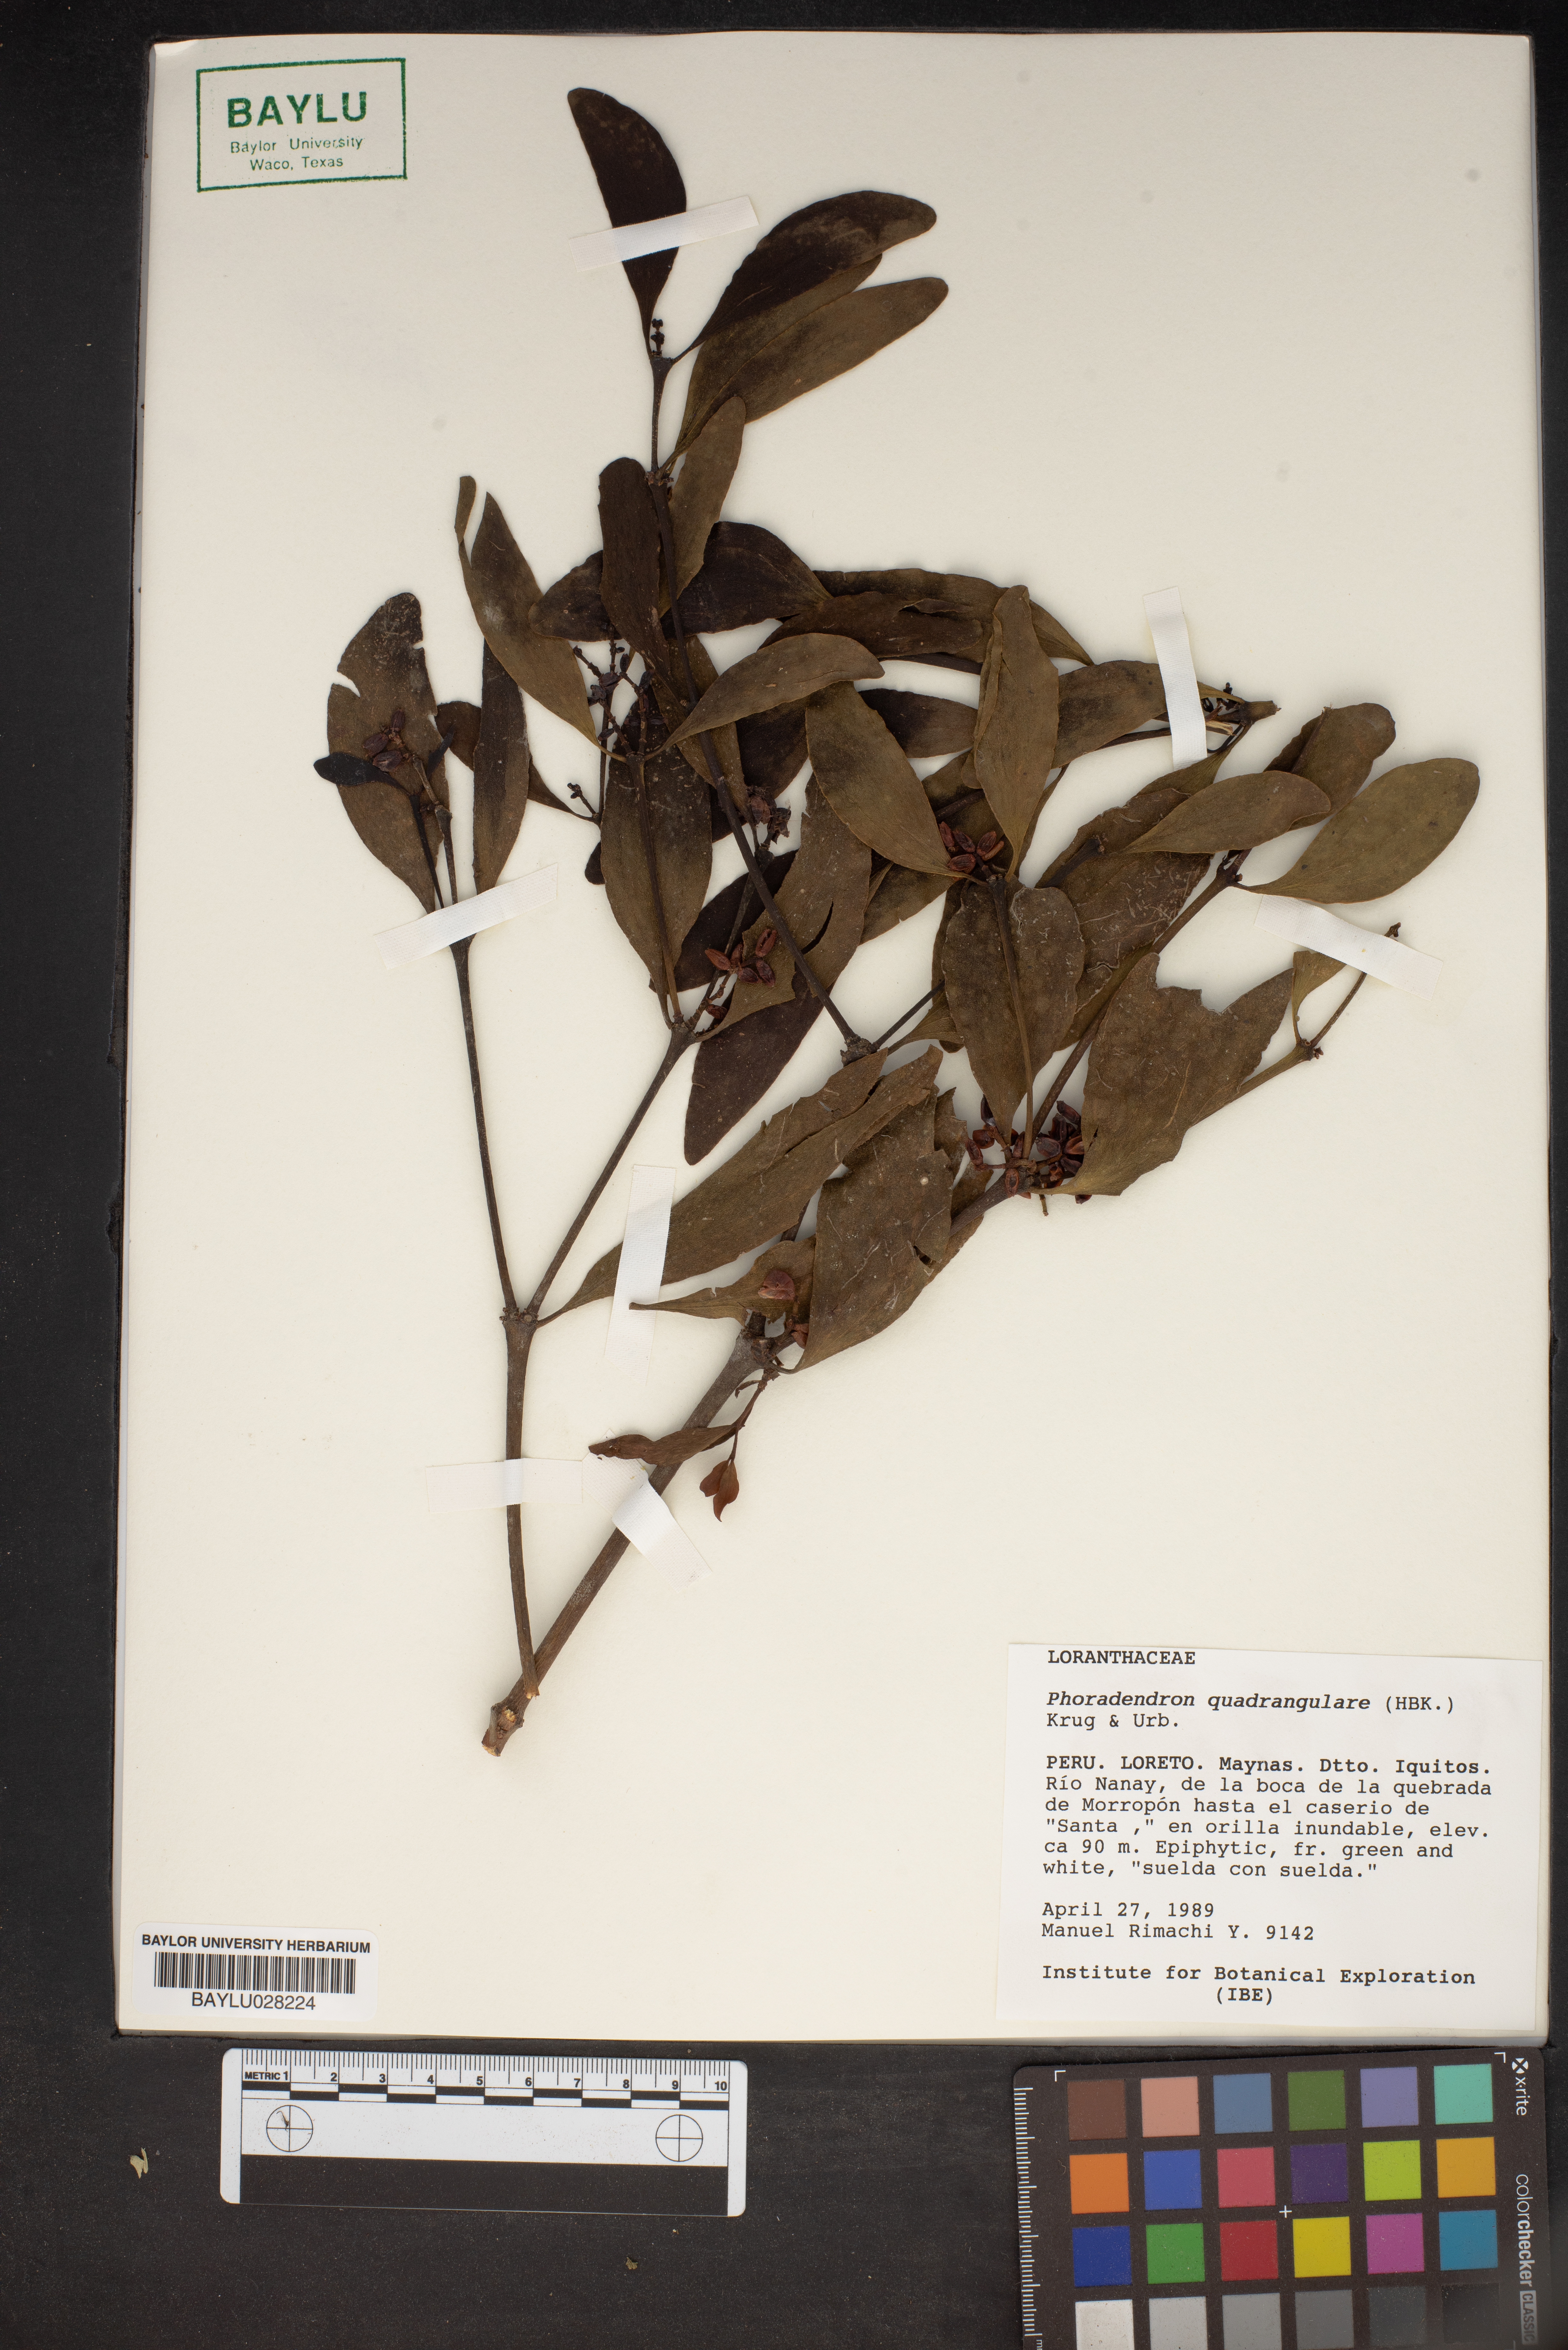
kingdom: Plantae
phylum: Tracheophyta
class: Magnoliopsida
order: Santalales
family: Viscaceae
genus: Phoradendron
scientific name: Phoradendron quadrangulare
